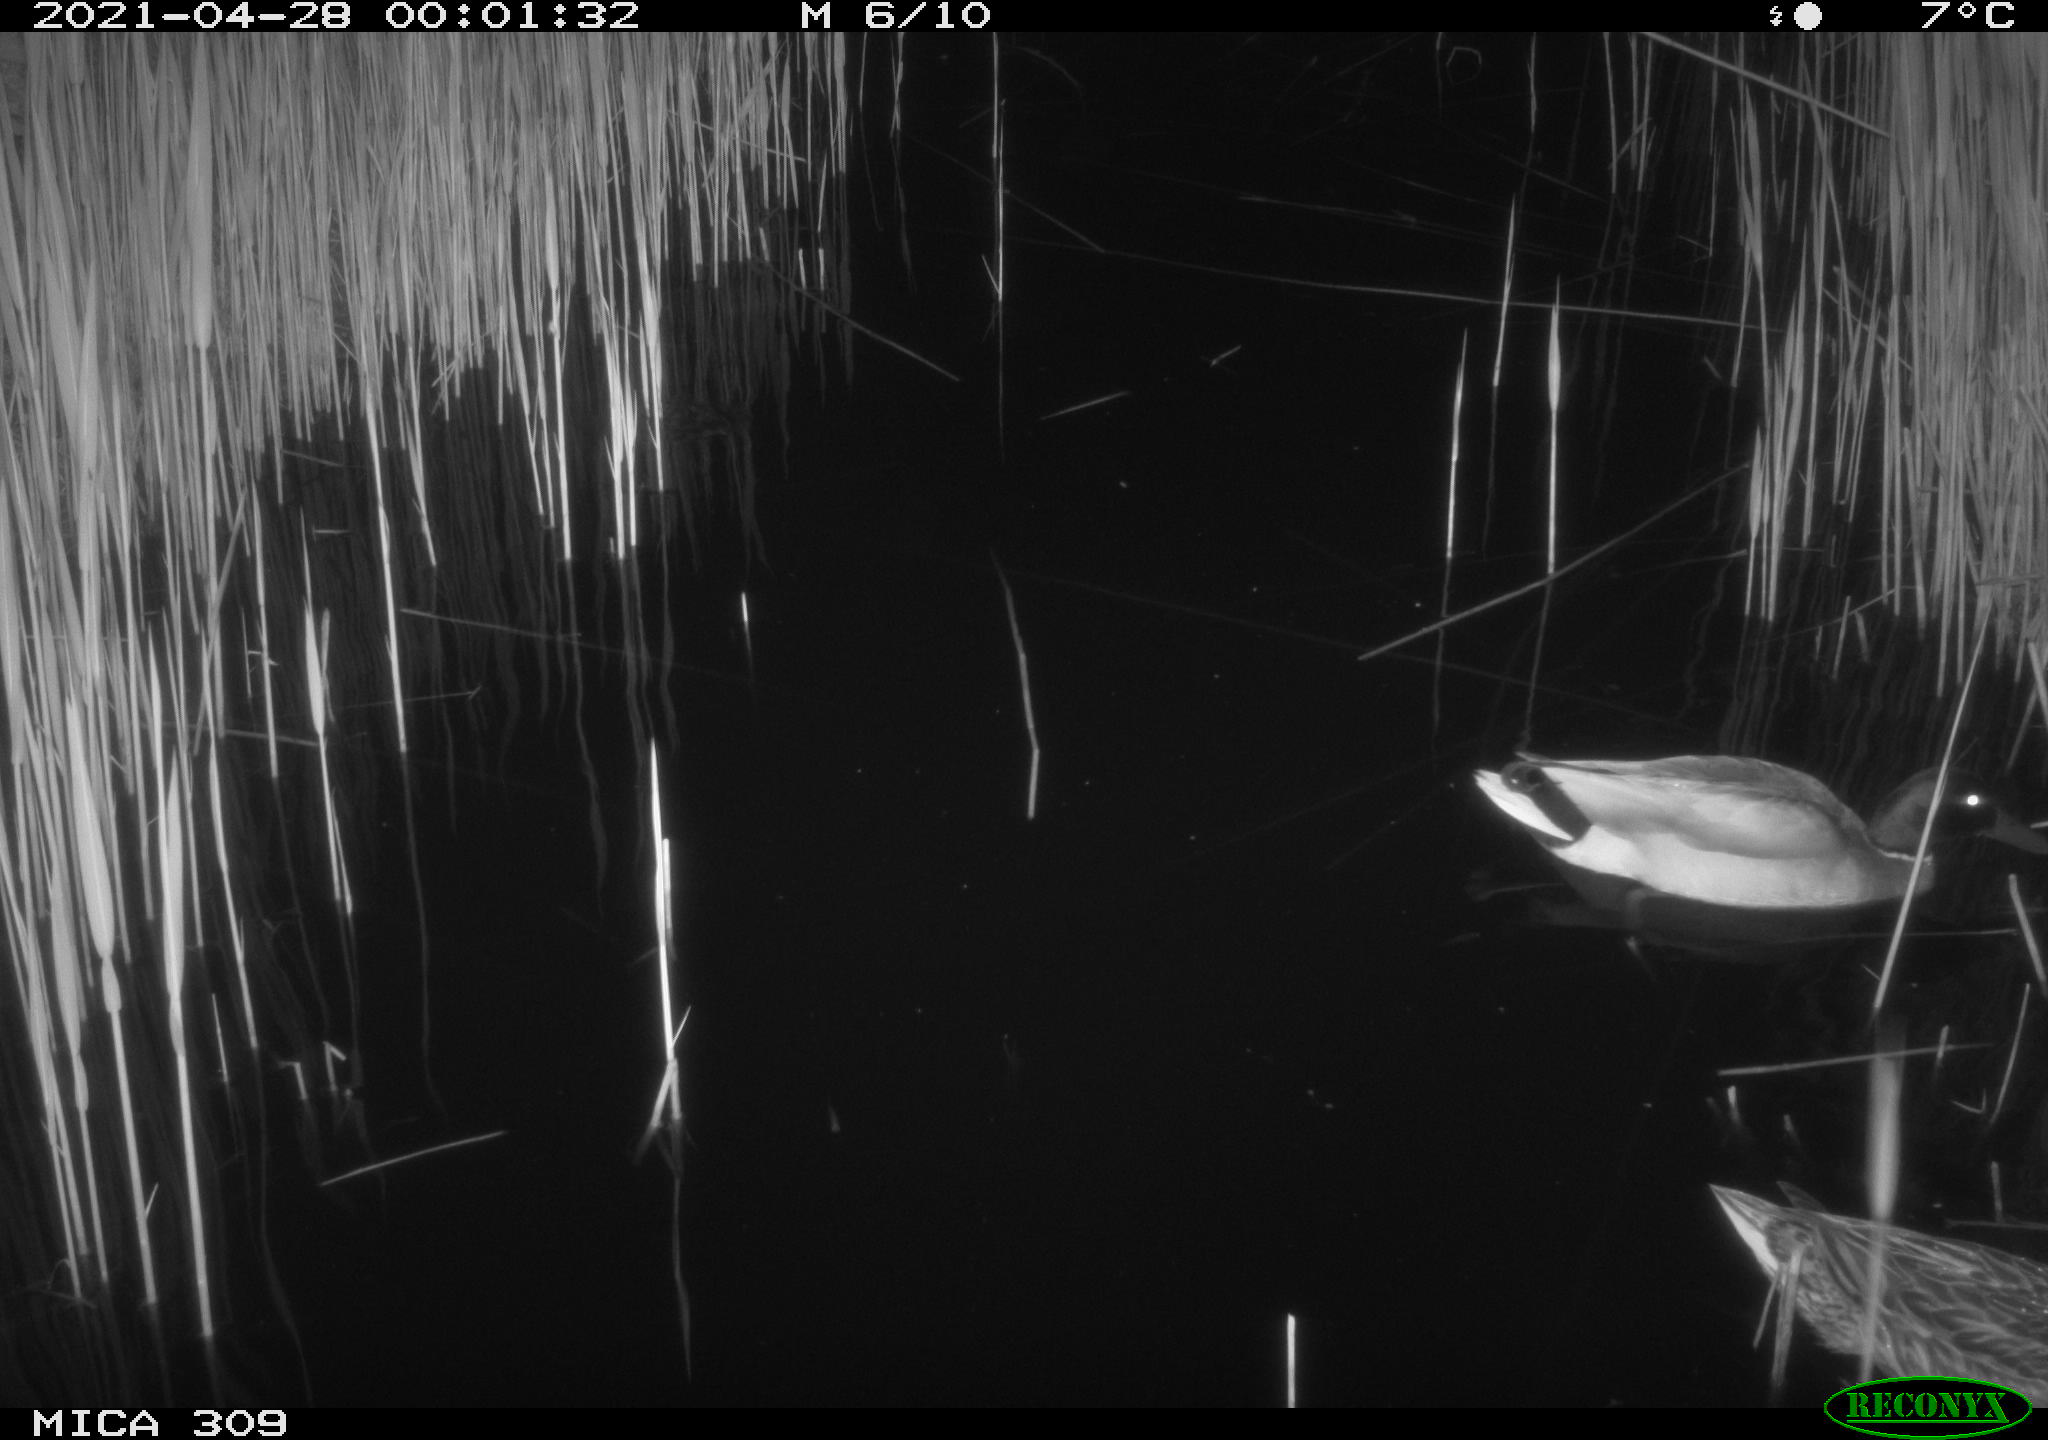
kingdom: Animalia
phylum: Chordata
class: Aves
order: Anseriformes
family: Anatidae
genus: Mareca
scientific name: Mareca strepera
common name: Gadwall
